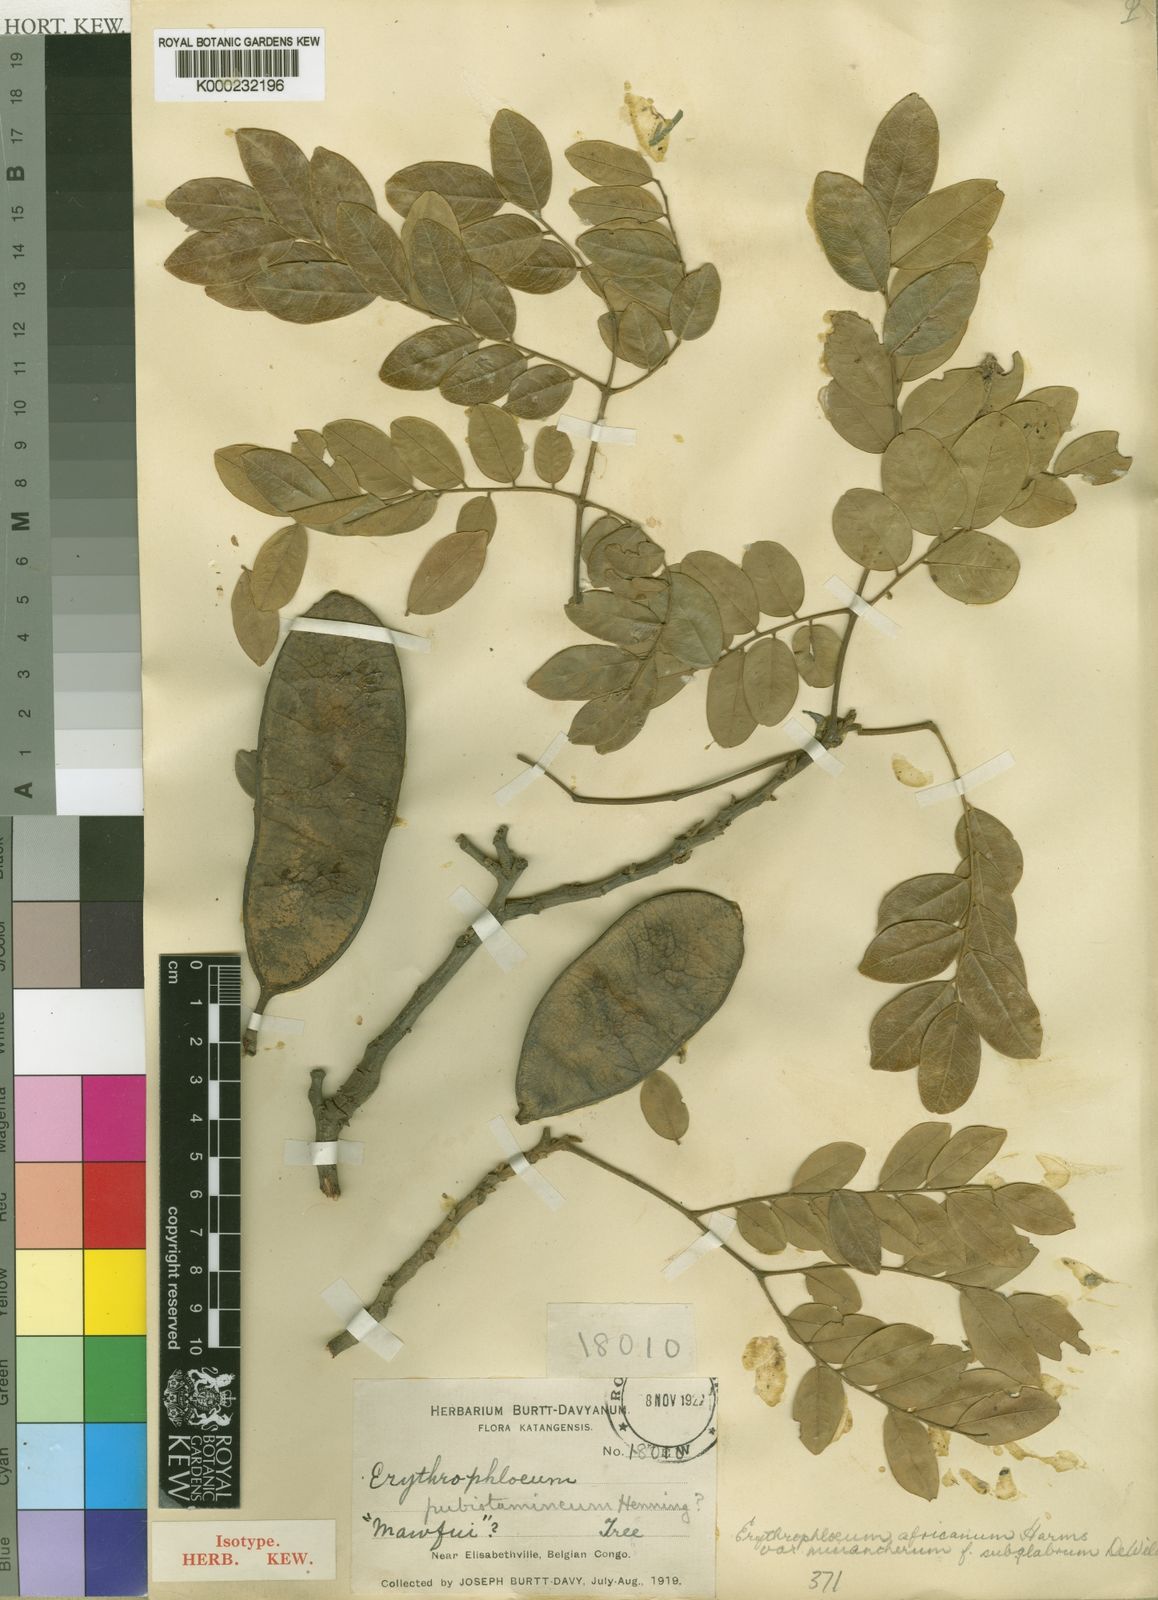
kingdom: Plantae
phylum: Tracheophyta
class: Magnoliopsida
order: Fabales
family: Fabaceae
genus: Erythrophleum
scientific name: Erythrophleum africanum
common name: African blackwood
